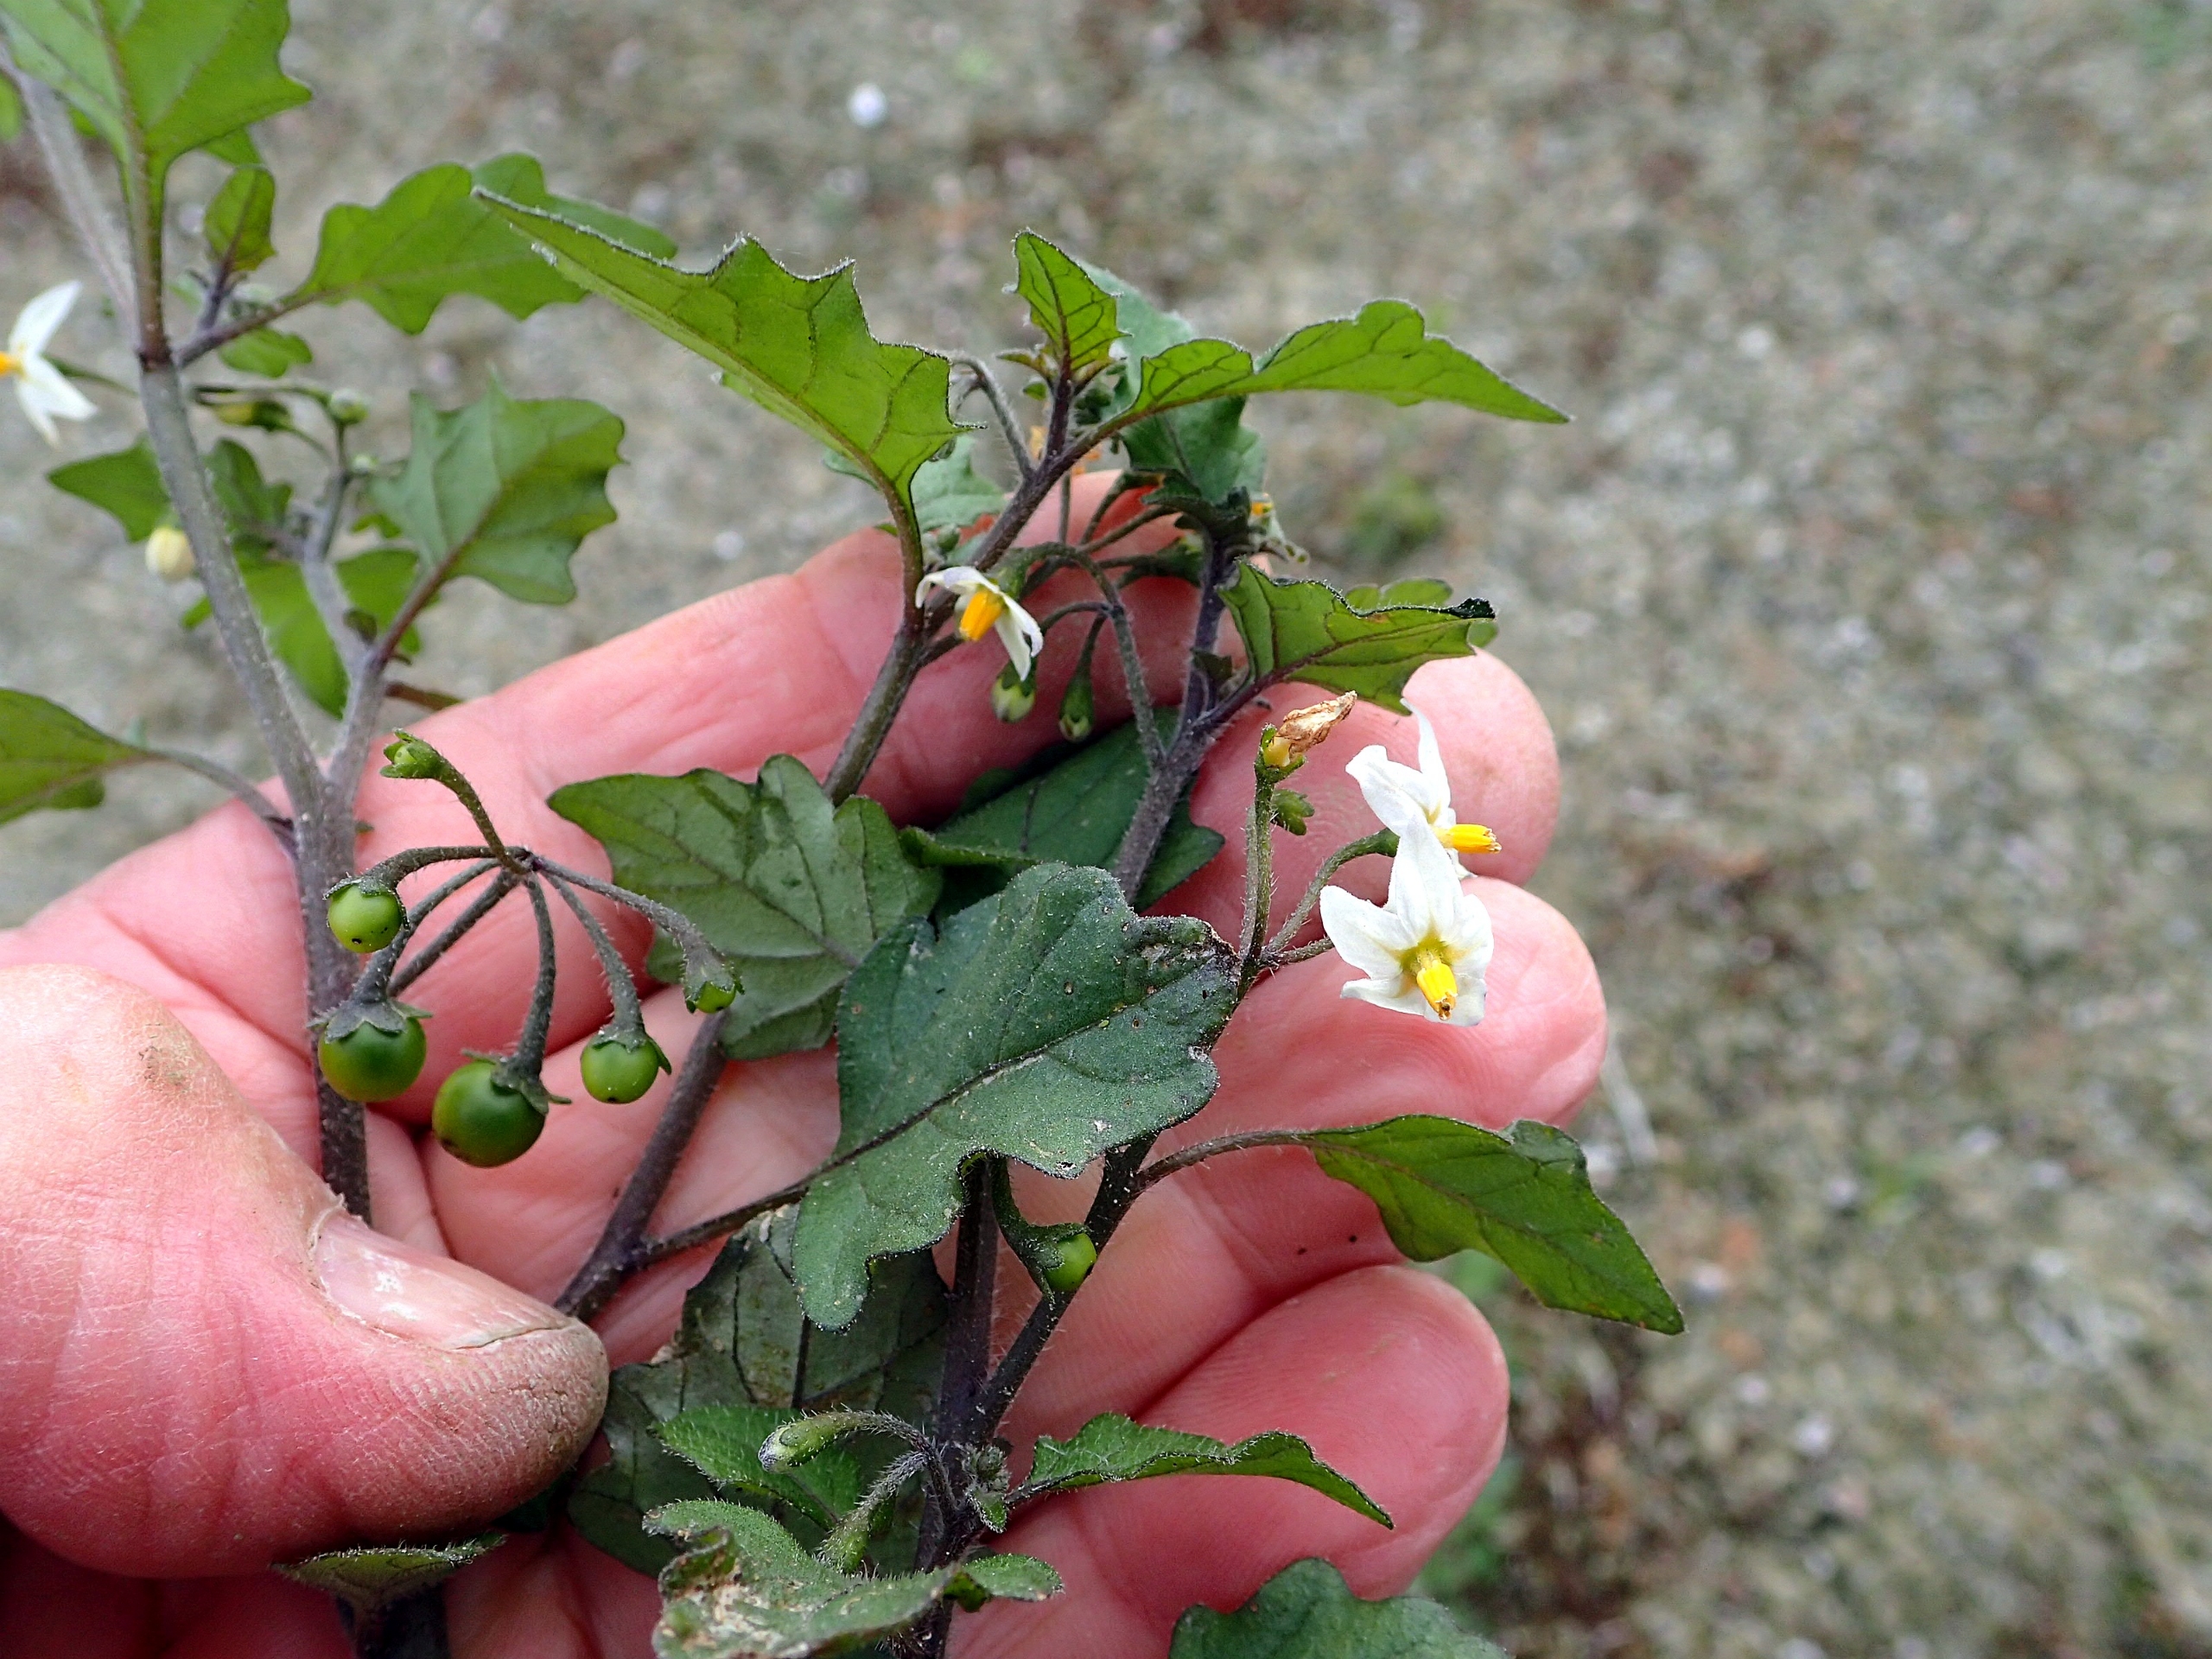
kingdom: Plantae
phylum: Tracheophyta
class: Magnoliopsida
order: Solanales
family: Solanaceae
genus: Solanum
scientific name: Solanum decipiens
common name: Kirtel-natskygge
